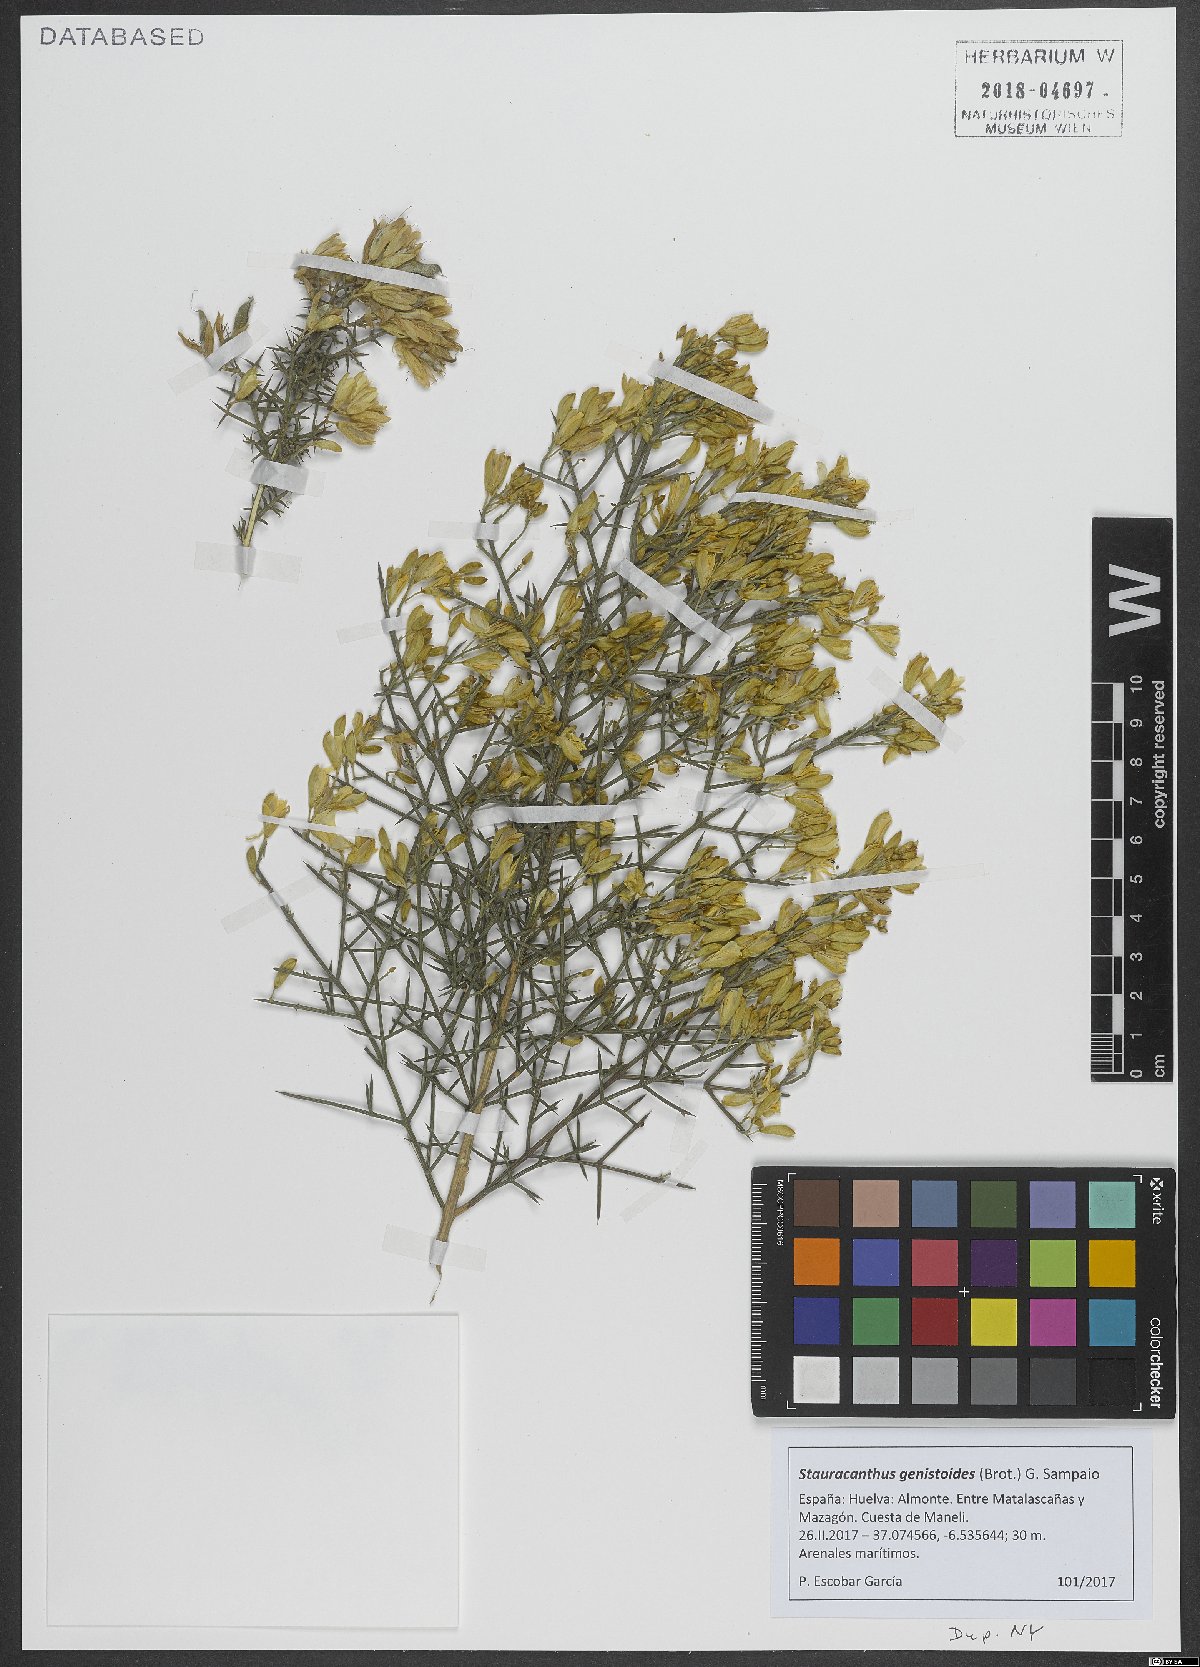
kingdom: Plantae
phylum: Tracheophyta
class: Magnoliopsida
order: Fabales
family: Fabaceae
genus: Stauracanthus
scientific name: Stauracanthus genistoides
